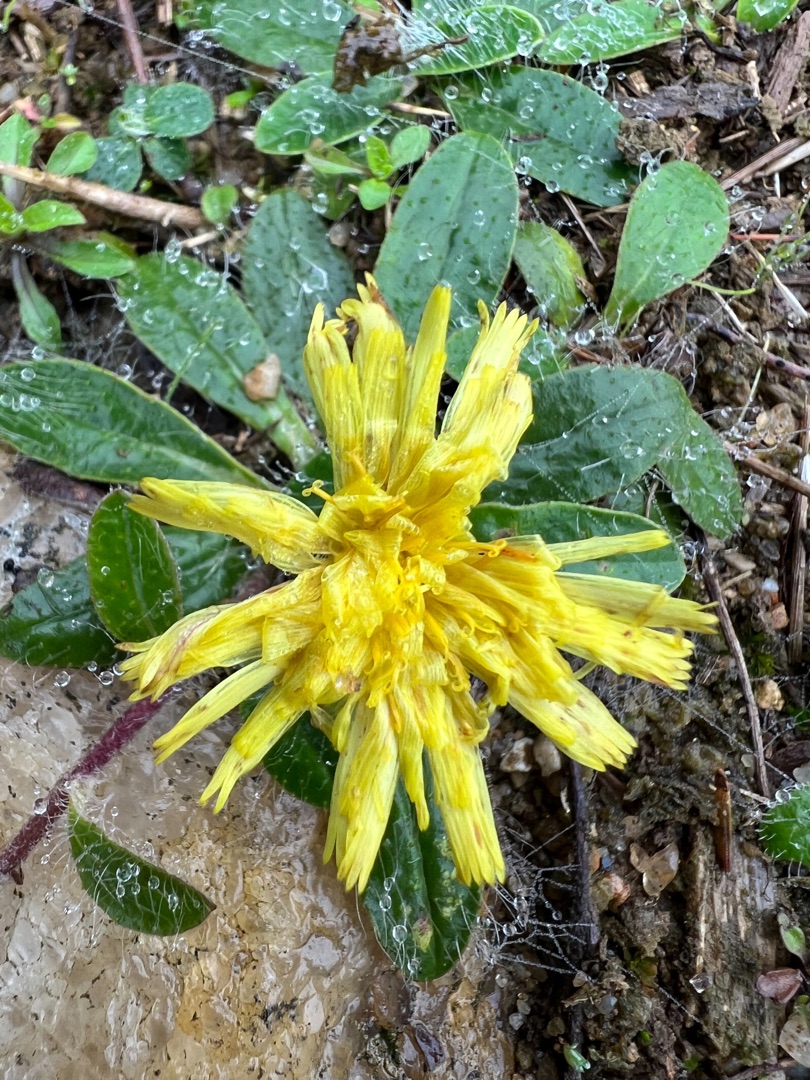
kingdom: Plantae
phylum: Tracheophyta
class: Magnoliopsida
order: Asterales
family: Asteraceae
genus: Pilosella
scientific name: Pilosella officinarum
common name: Håret høgeurt
